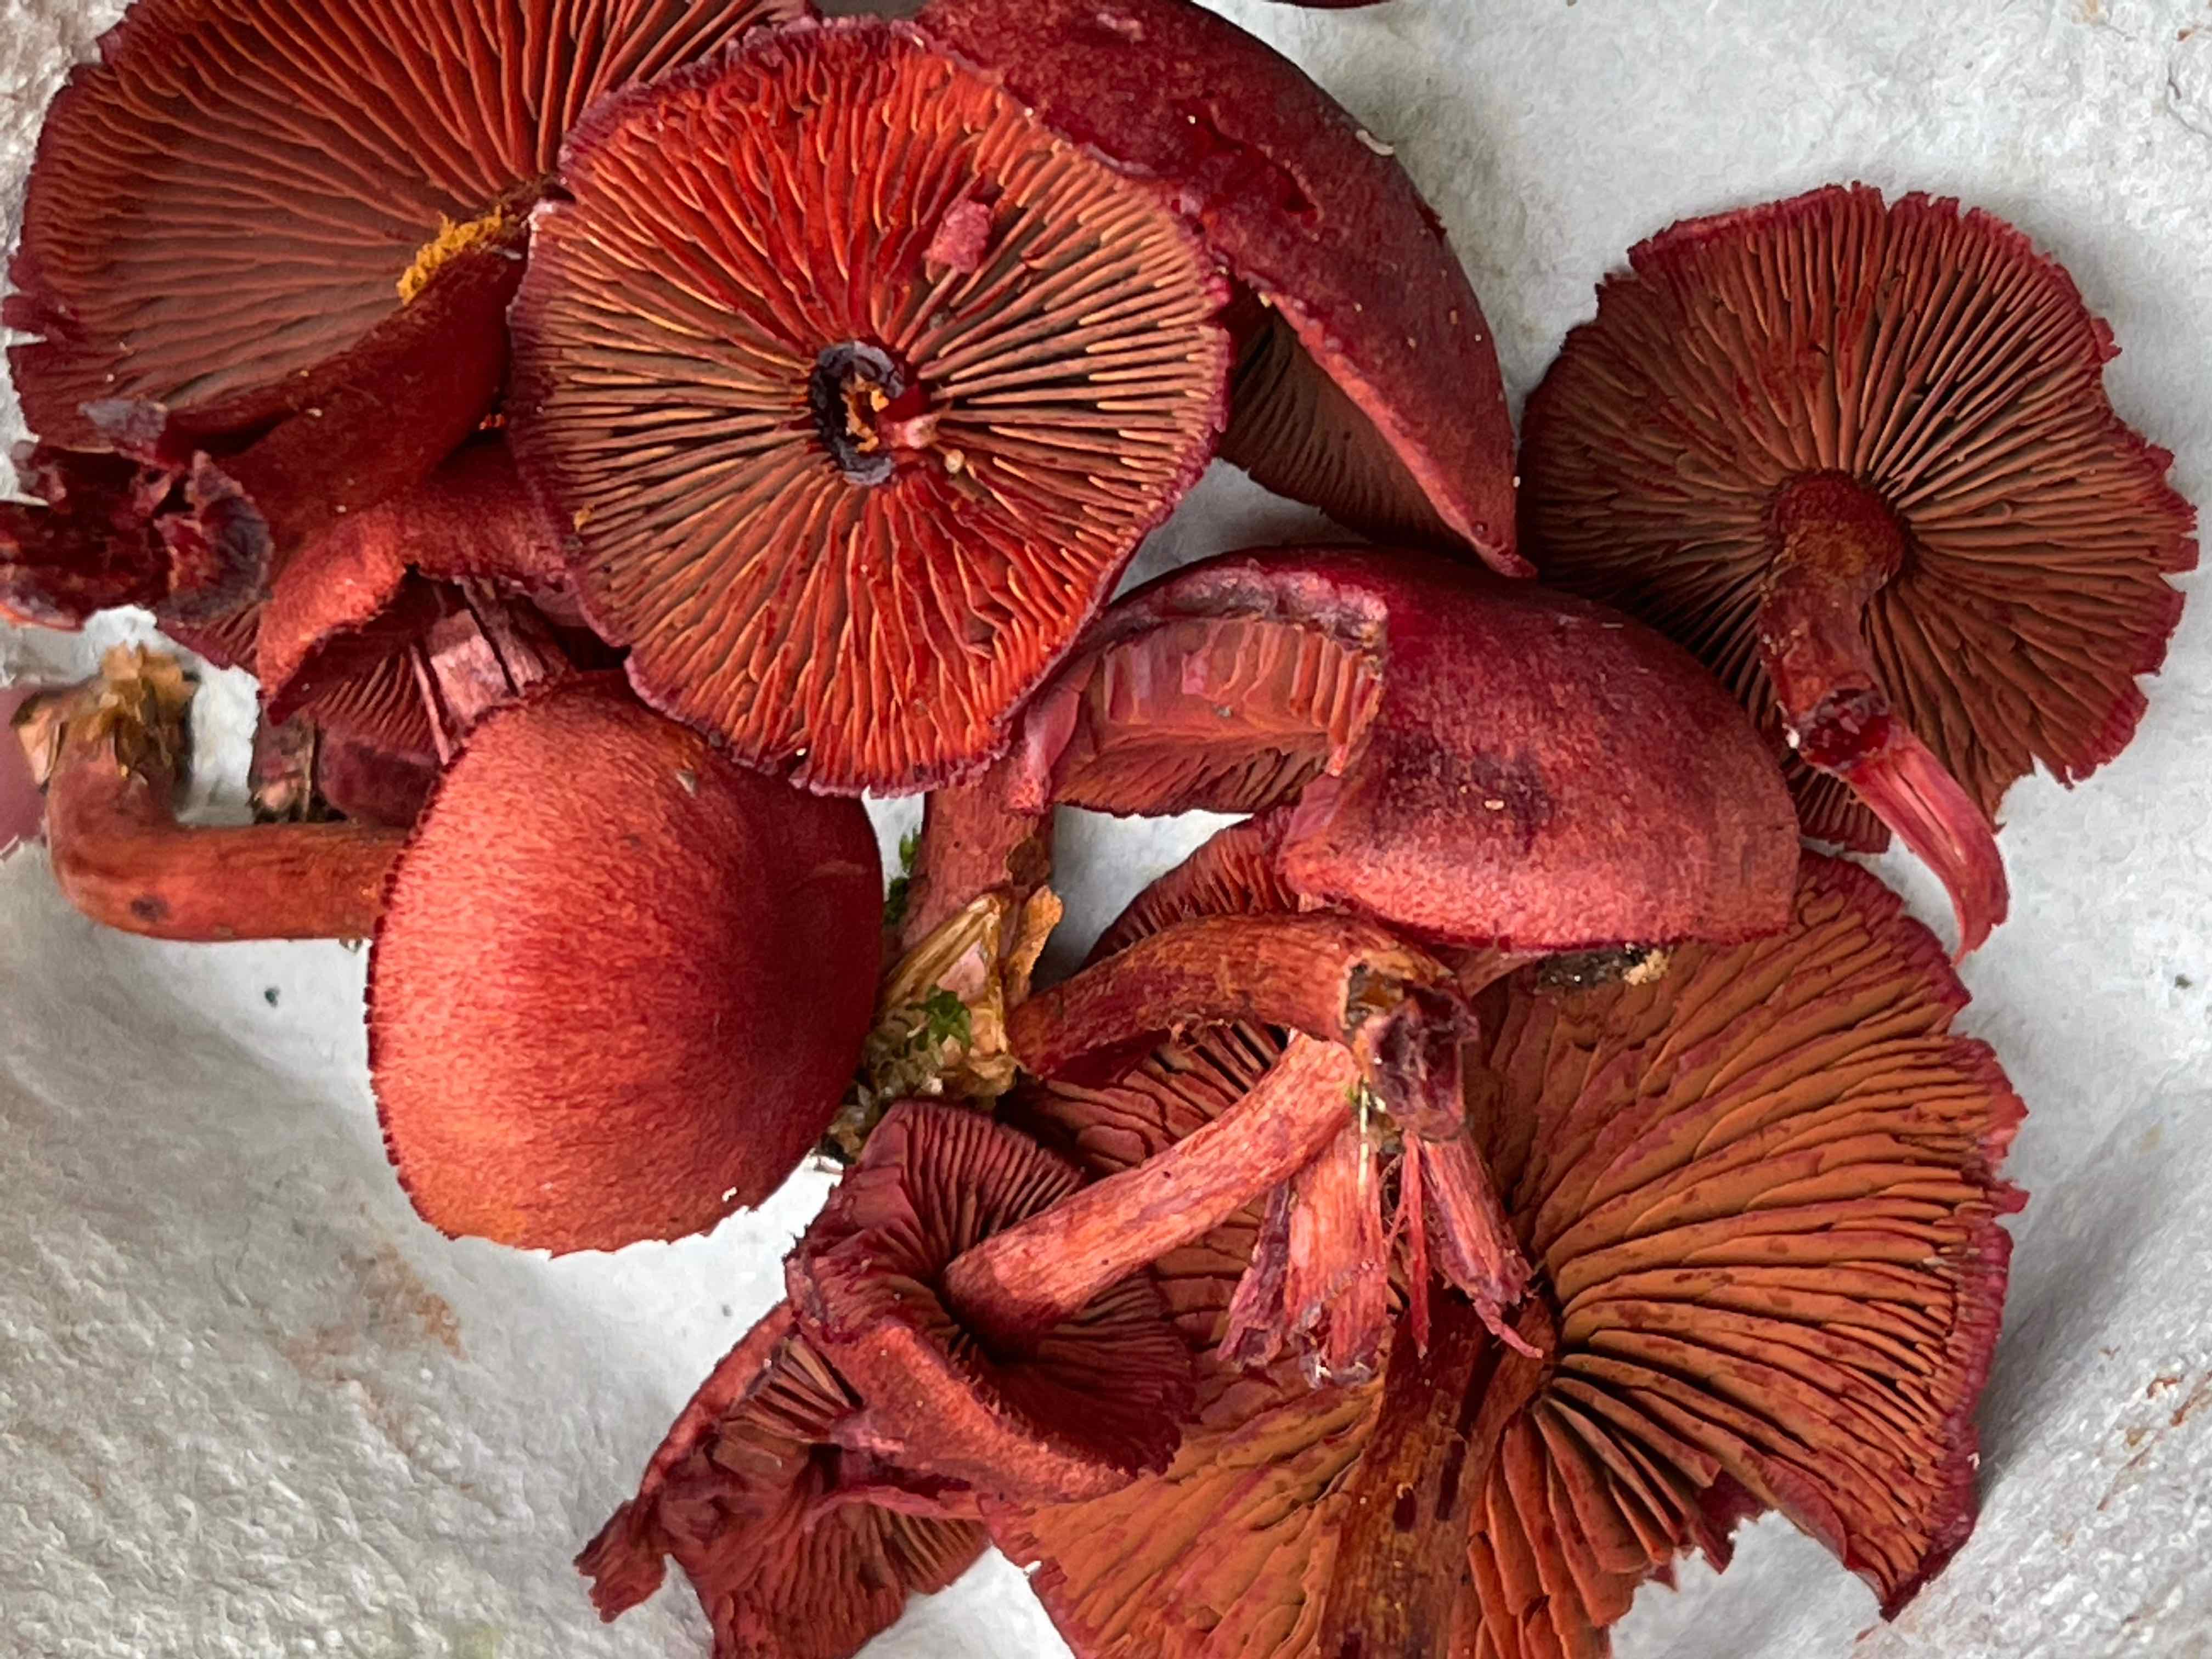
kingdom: Fungi
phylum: Basidiomycota
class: Agaricomycetes
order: Agaricales
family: Cortinariaceae
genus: Cortinarius
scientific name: Cortinarius sanguineus
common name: Bloodred webcap
